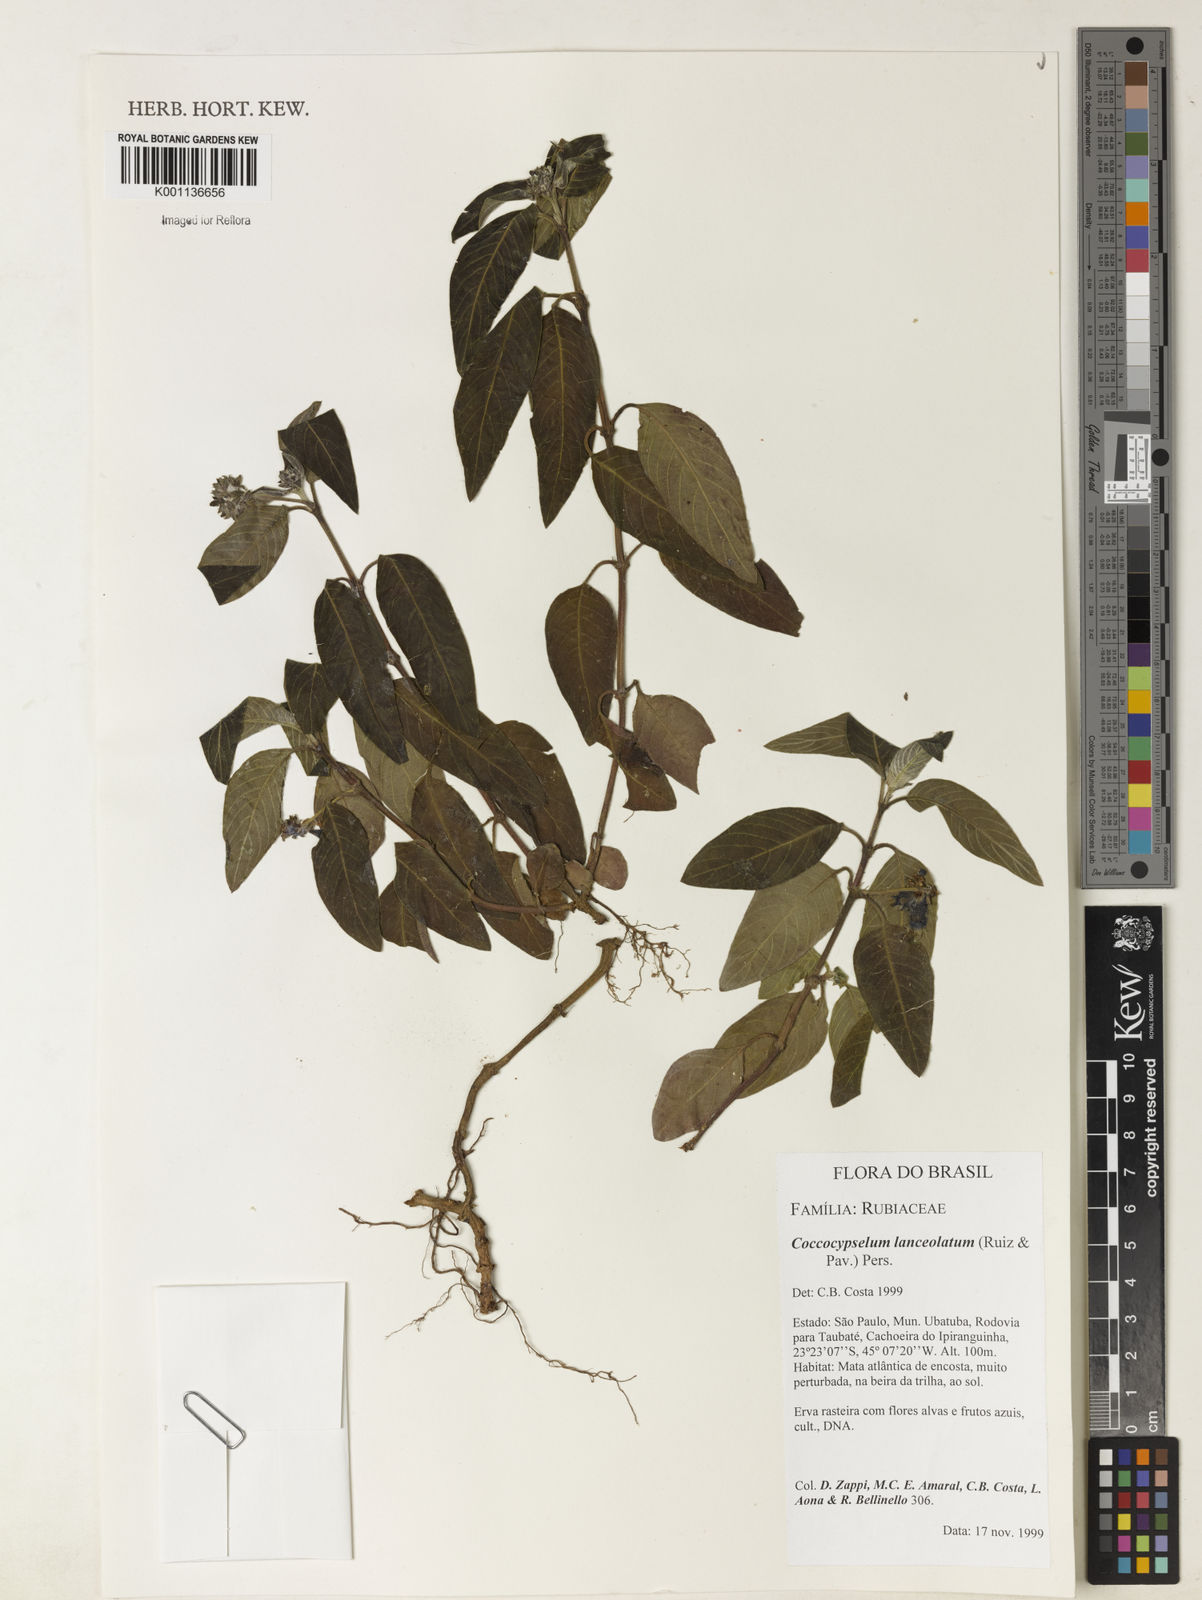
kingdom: Plantae
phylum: Tracheophyta
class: Magnoliopsida
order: Gentianales
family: Rubiaceae
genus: Coccocypselum
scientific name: Coccocypselum lanceolatum
